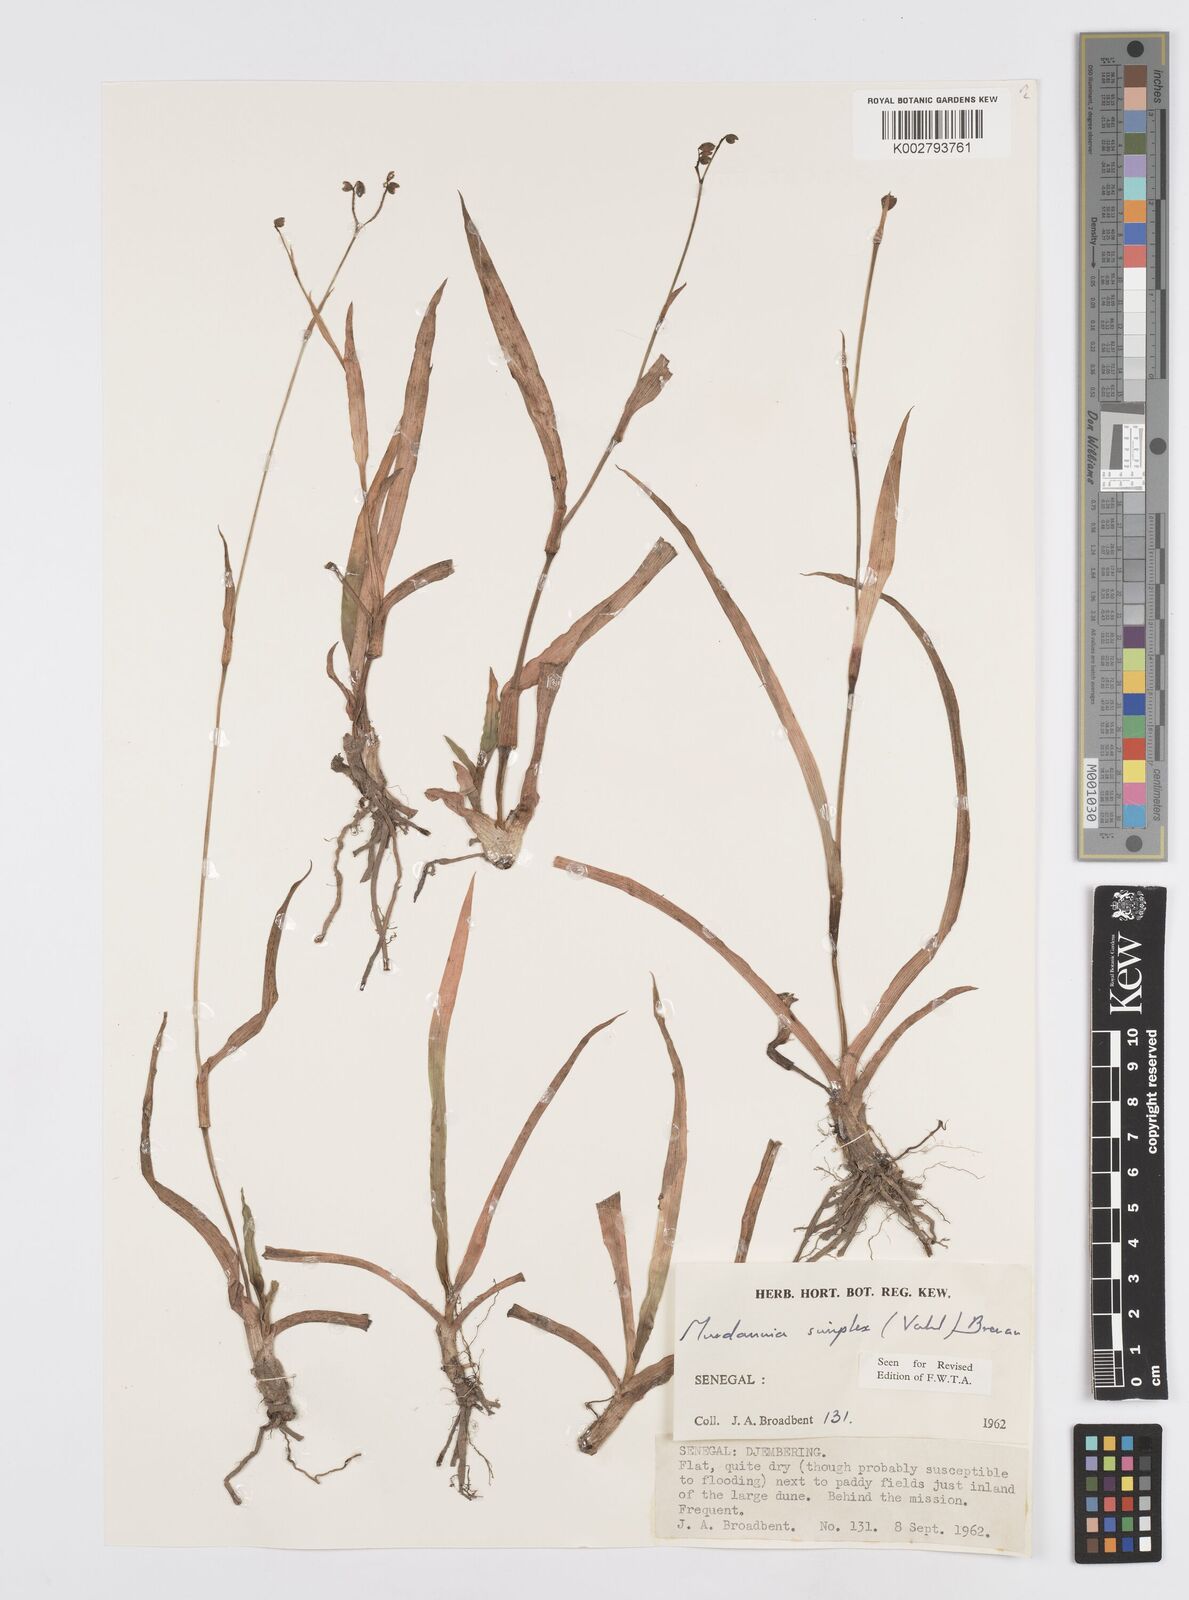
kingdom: Plantae
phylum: Tracheophyta
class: Liliopsida
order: Commelinales
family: Commelinaceae
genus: Murdannia
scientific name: Murdannia simplex
